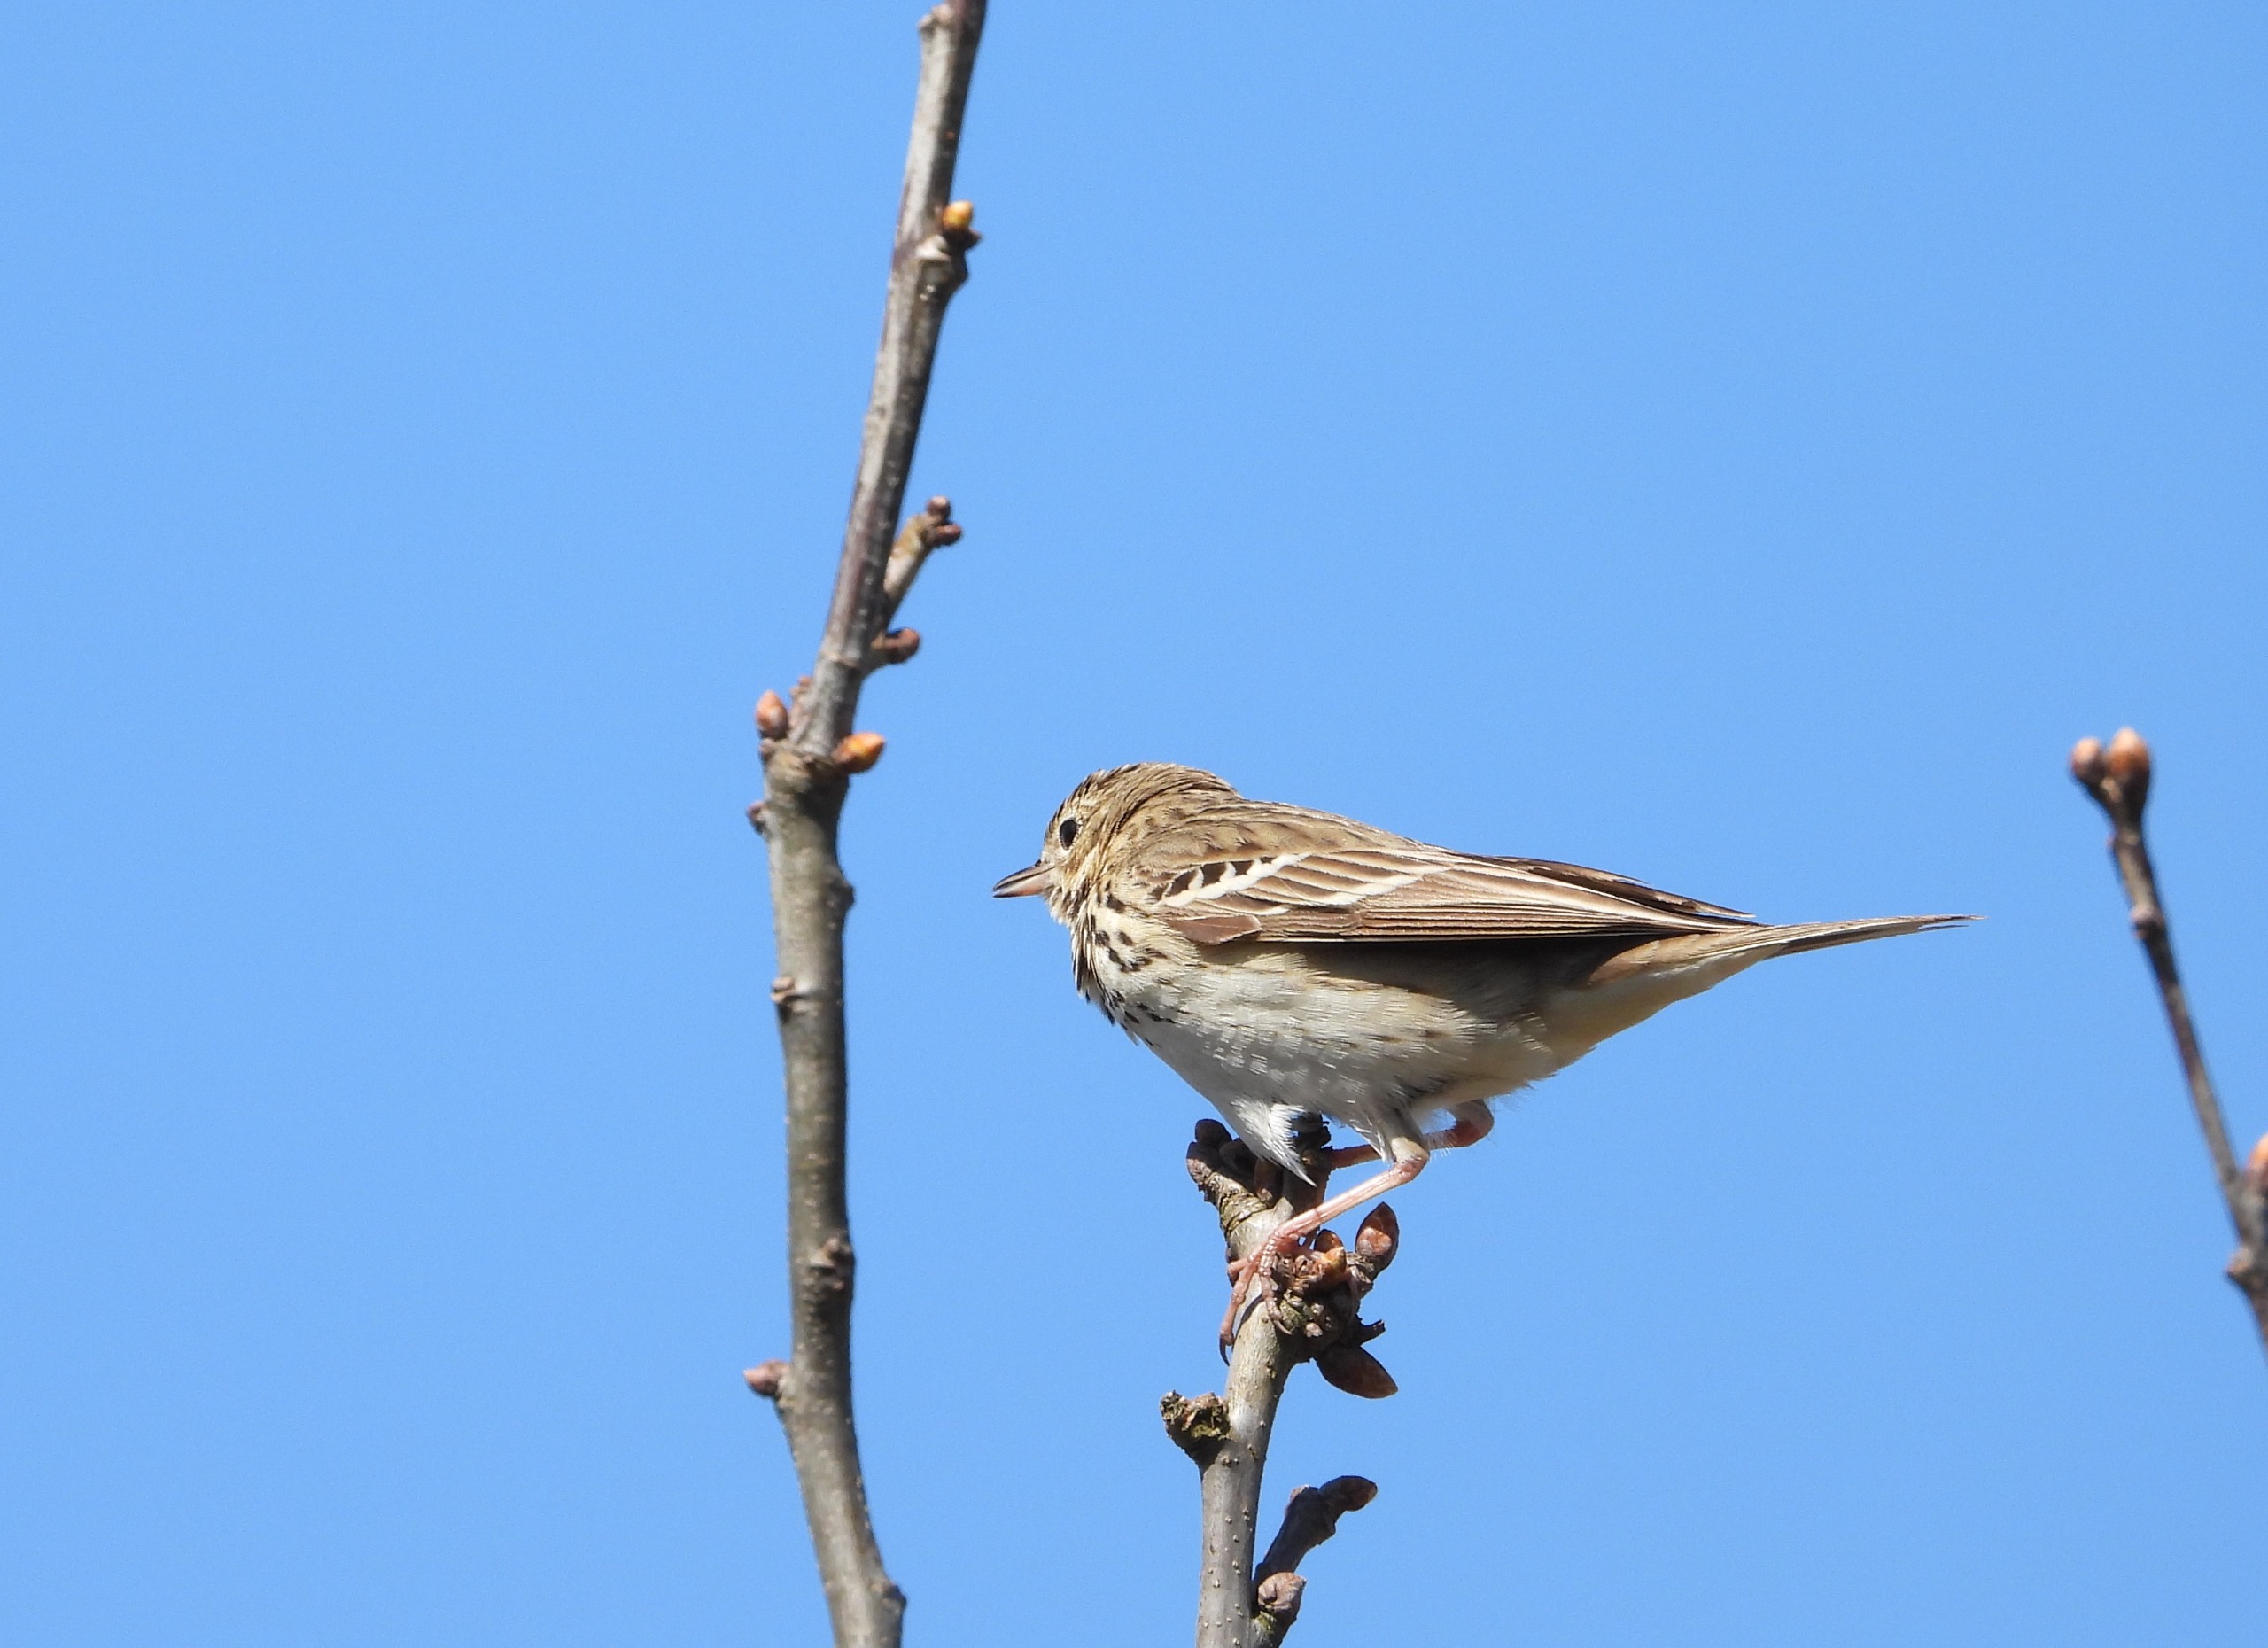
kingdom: Animalia
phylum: Chordata
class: Aves
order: Passeriformes
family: Motacillidae
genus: Anthus
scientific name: Anthus trivialis
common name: Skovpiber
